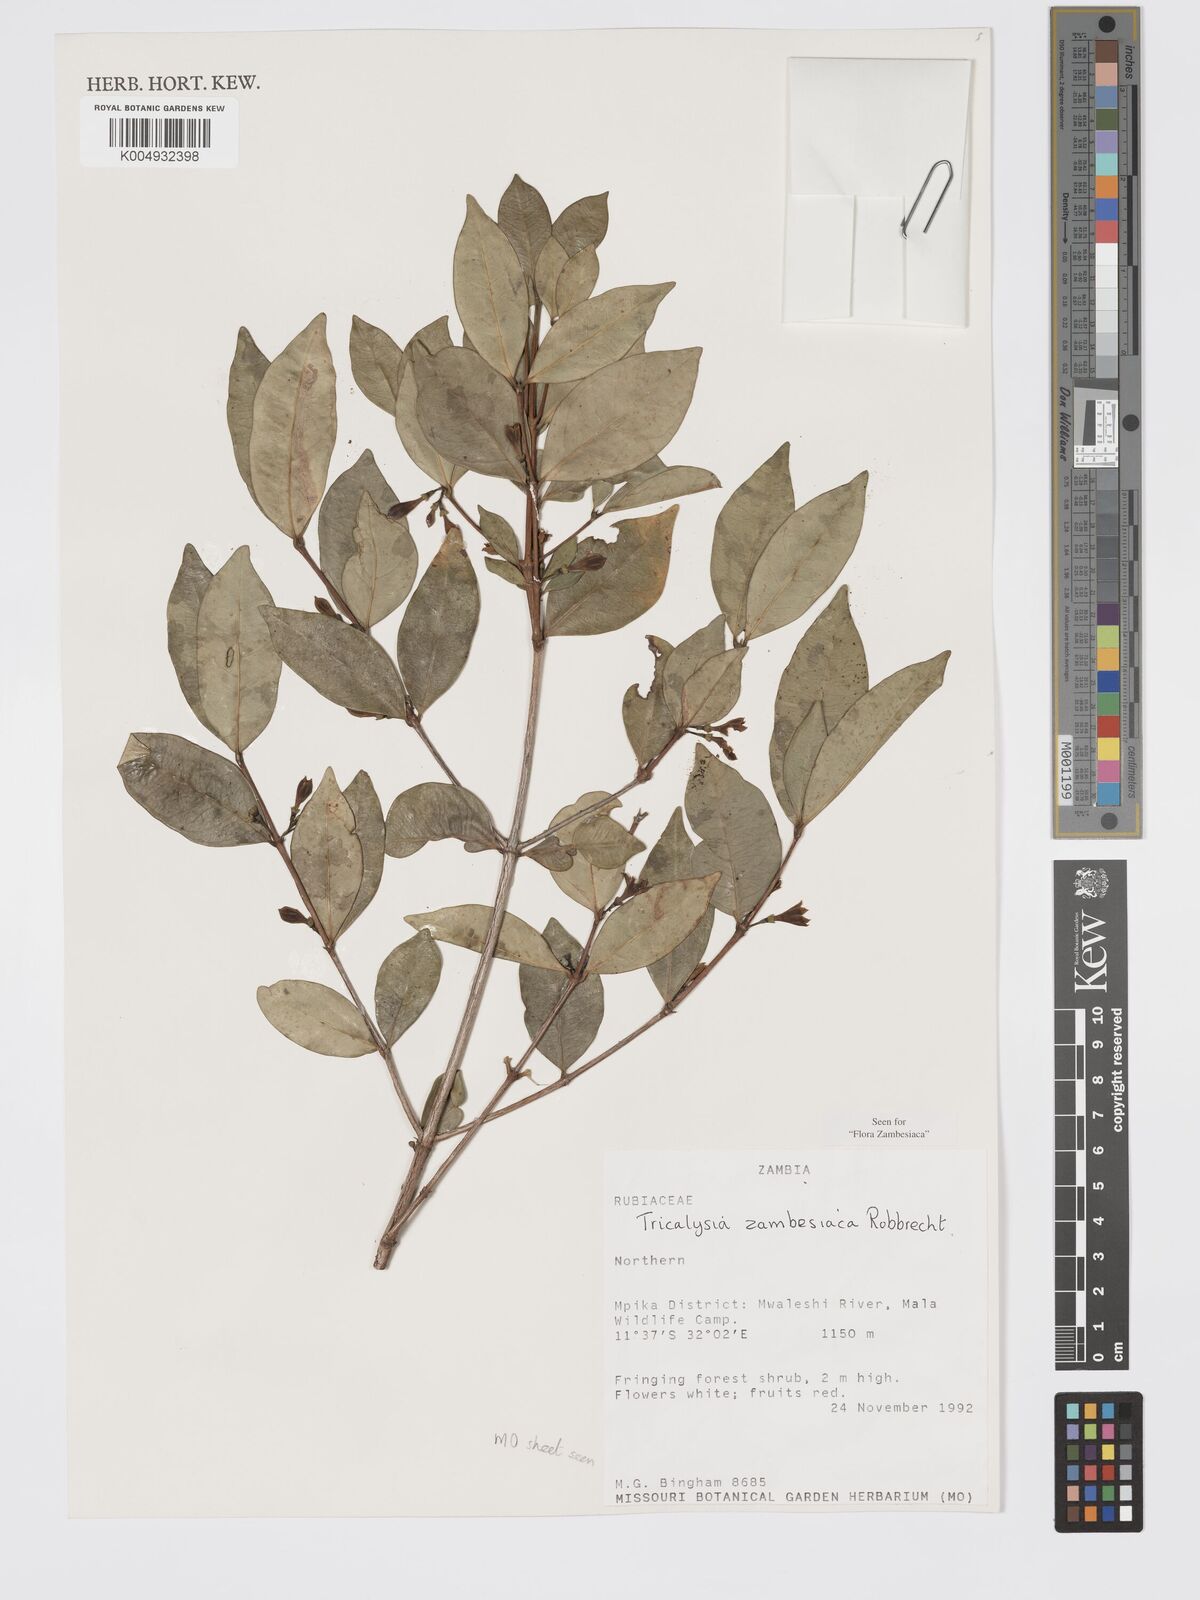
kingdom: Plantae
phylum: Tracheophyta
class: Magnoliopsida
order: Gentianales
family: Rubiaceae
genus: Tricalysia
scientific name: Tricalysia zambesiaca
